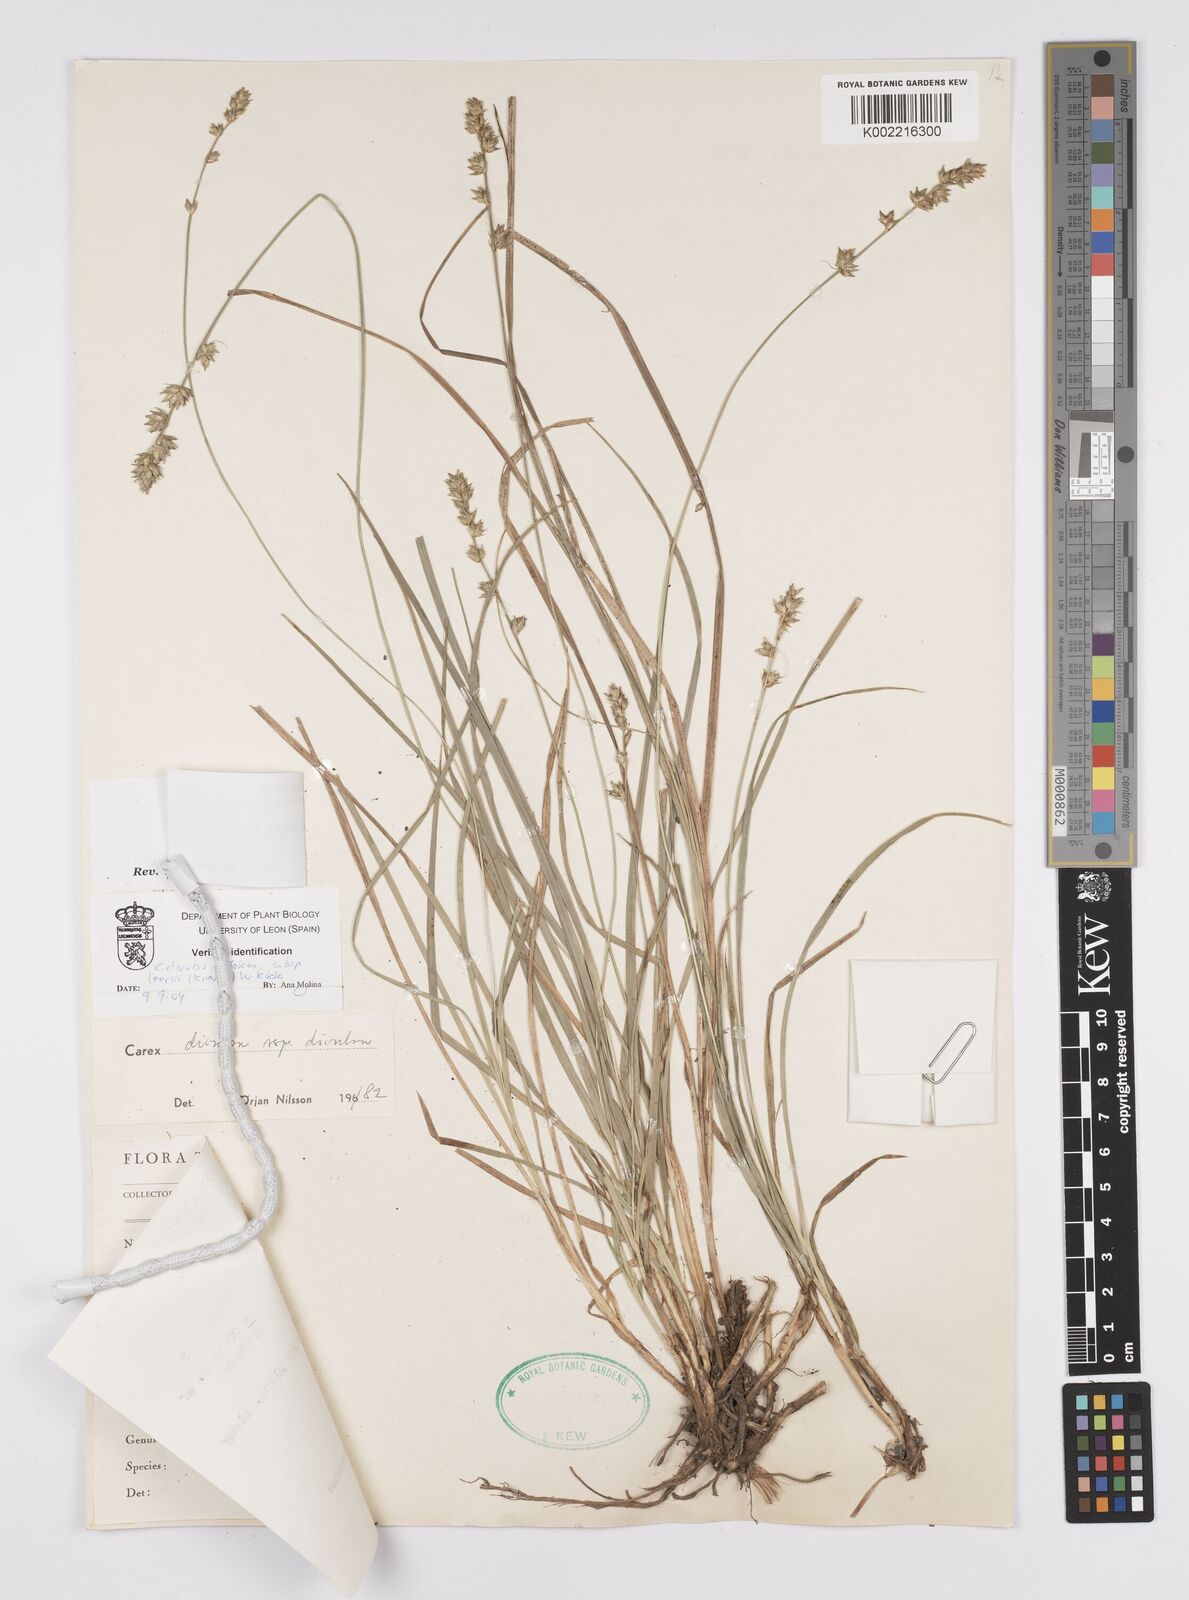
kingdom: Plantae
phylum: Tracheophyta
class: Liliopsida
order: Poales
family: Cyperaceae
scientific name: Cyperaceae
